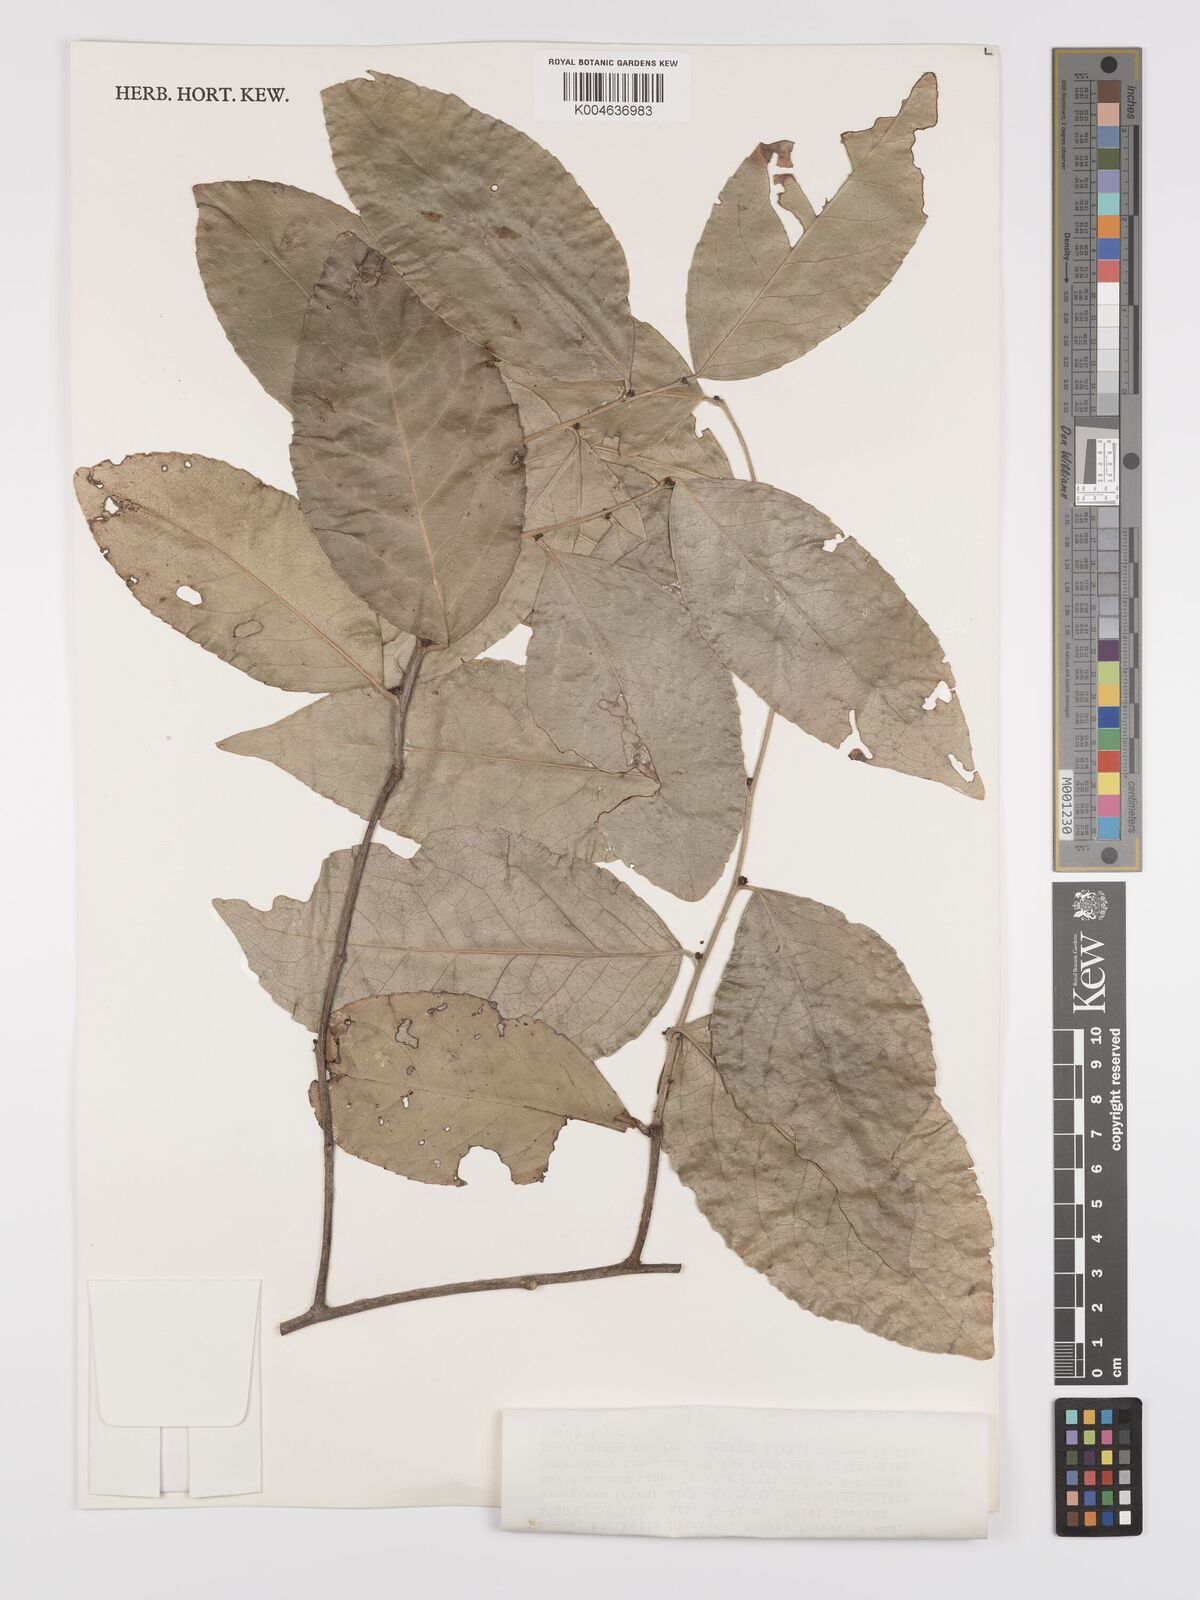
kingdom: Plantae
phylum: Tracheophyta
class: Magnoliopsida
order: Celastrales
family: Celastraceae
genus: Gymnosporia
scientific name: Gymnosporia undata
